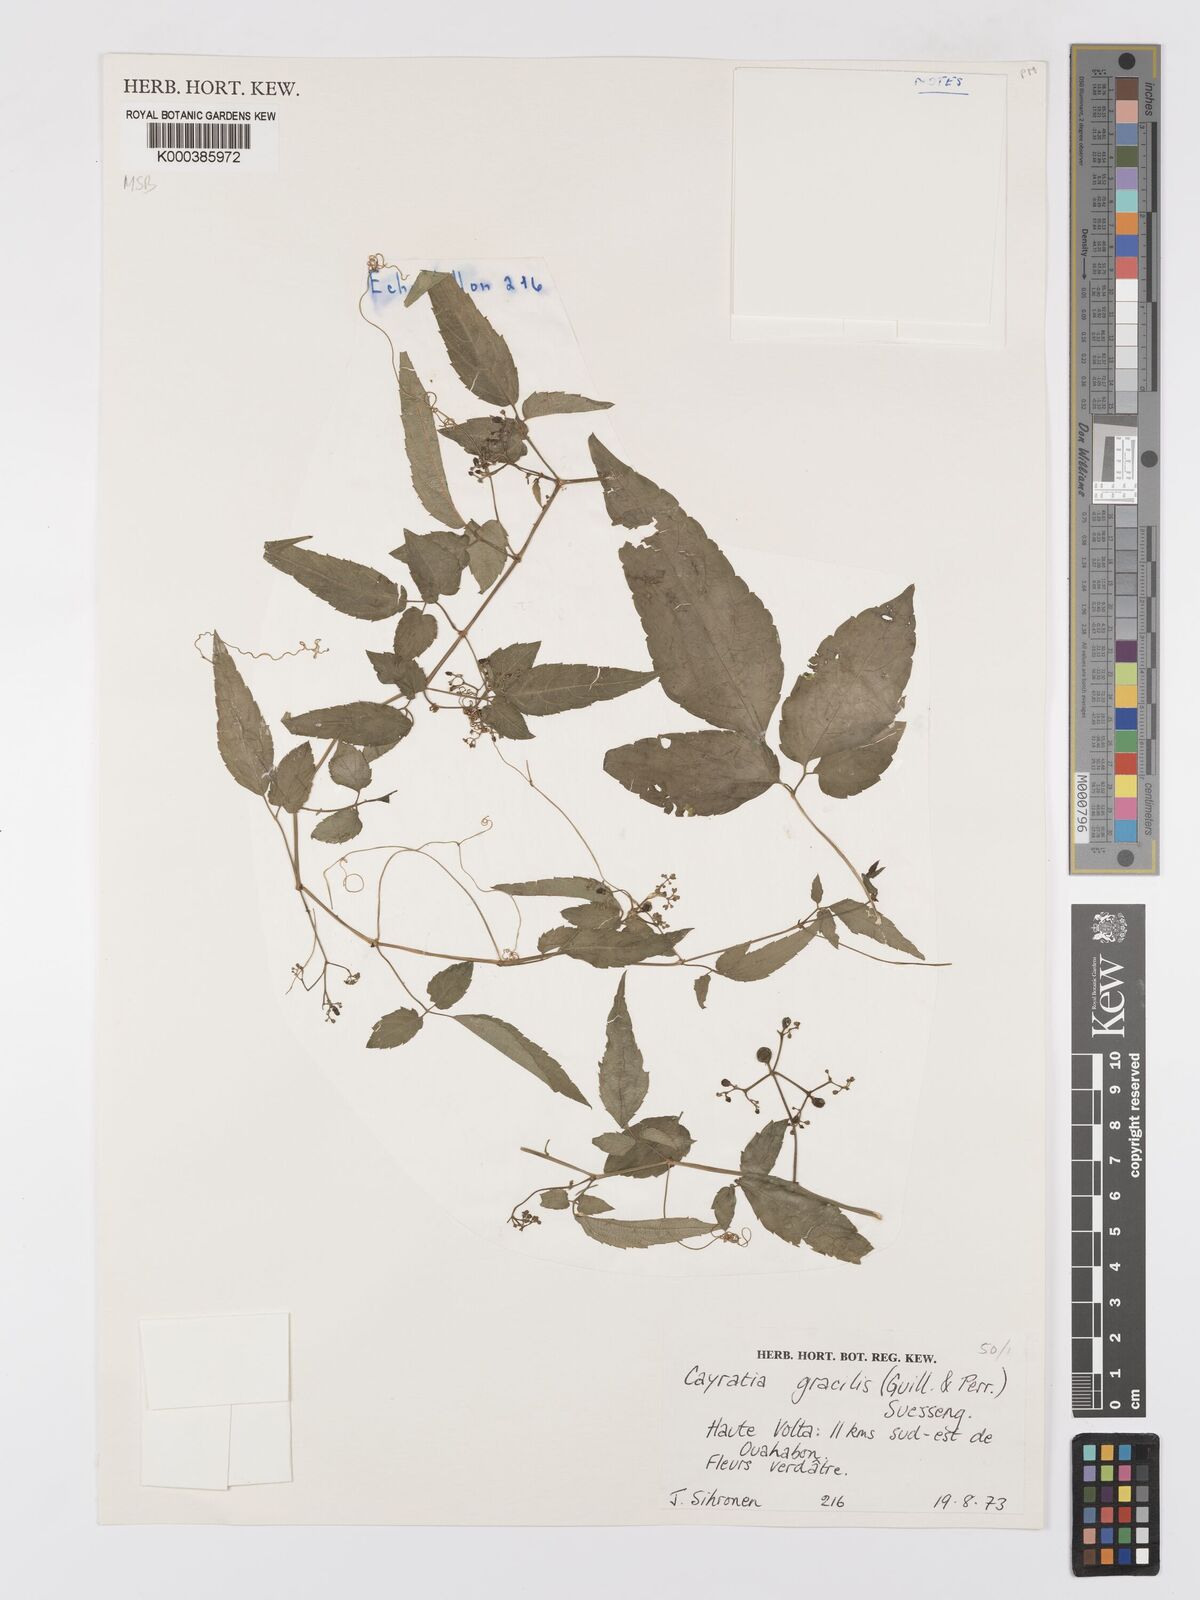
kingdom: Plantae
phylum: Tracheophyta
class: Magnoliopsida
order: Vitales
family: Vitaceae
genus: Afrocayratia
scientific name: Afrocayratia gracilis
